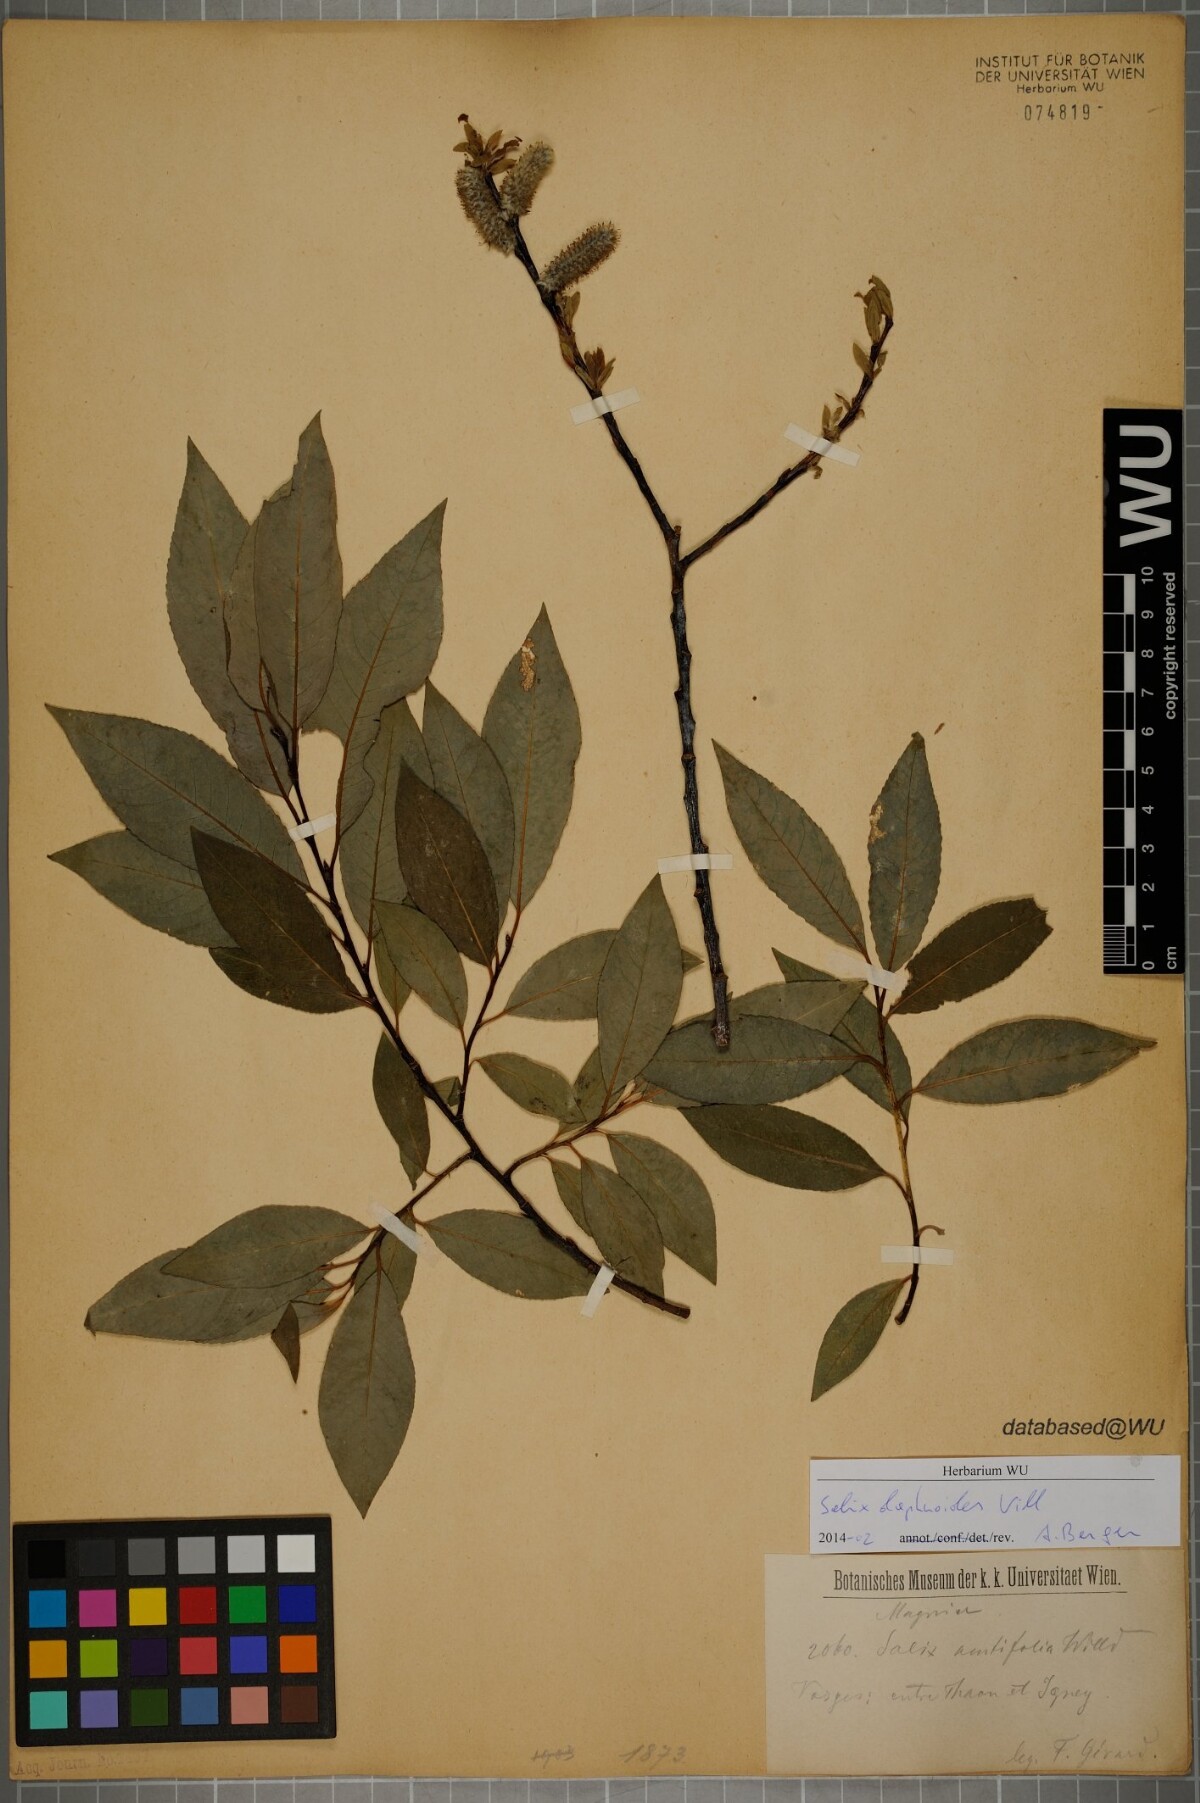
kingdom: Plantae
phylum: Tracheophyta
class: Magnoliopsida
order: Malpighiales
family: Salicaceae
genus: Salix
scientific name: Salix daphnoides
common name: European violet-willow
